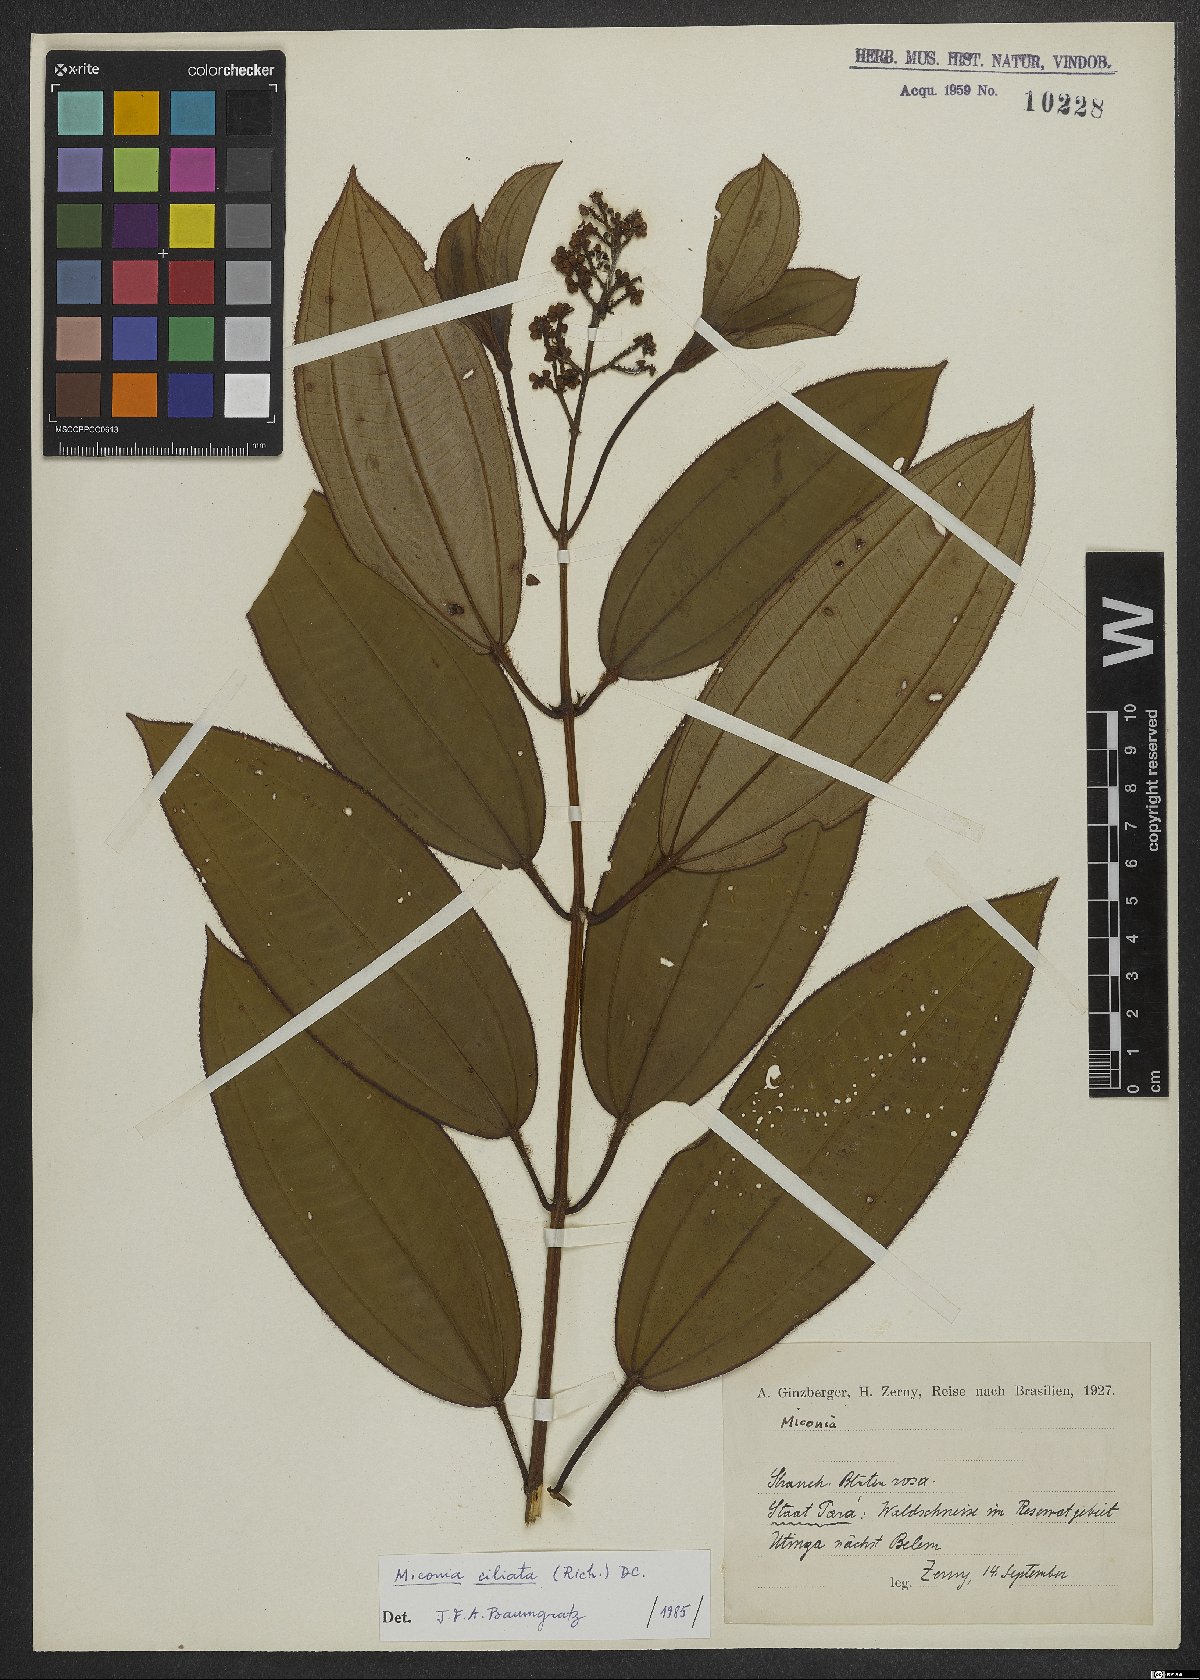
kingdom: Plantae
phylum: Tracheophyta
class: Magnoliopsida
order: Myrtales
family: Melastomataceae
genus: Miconia
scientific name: Miconia ciliata
